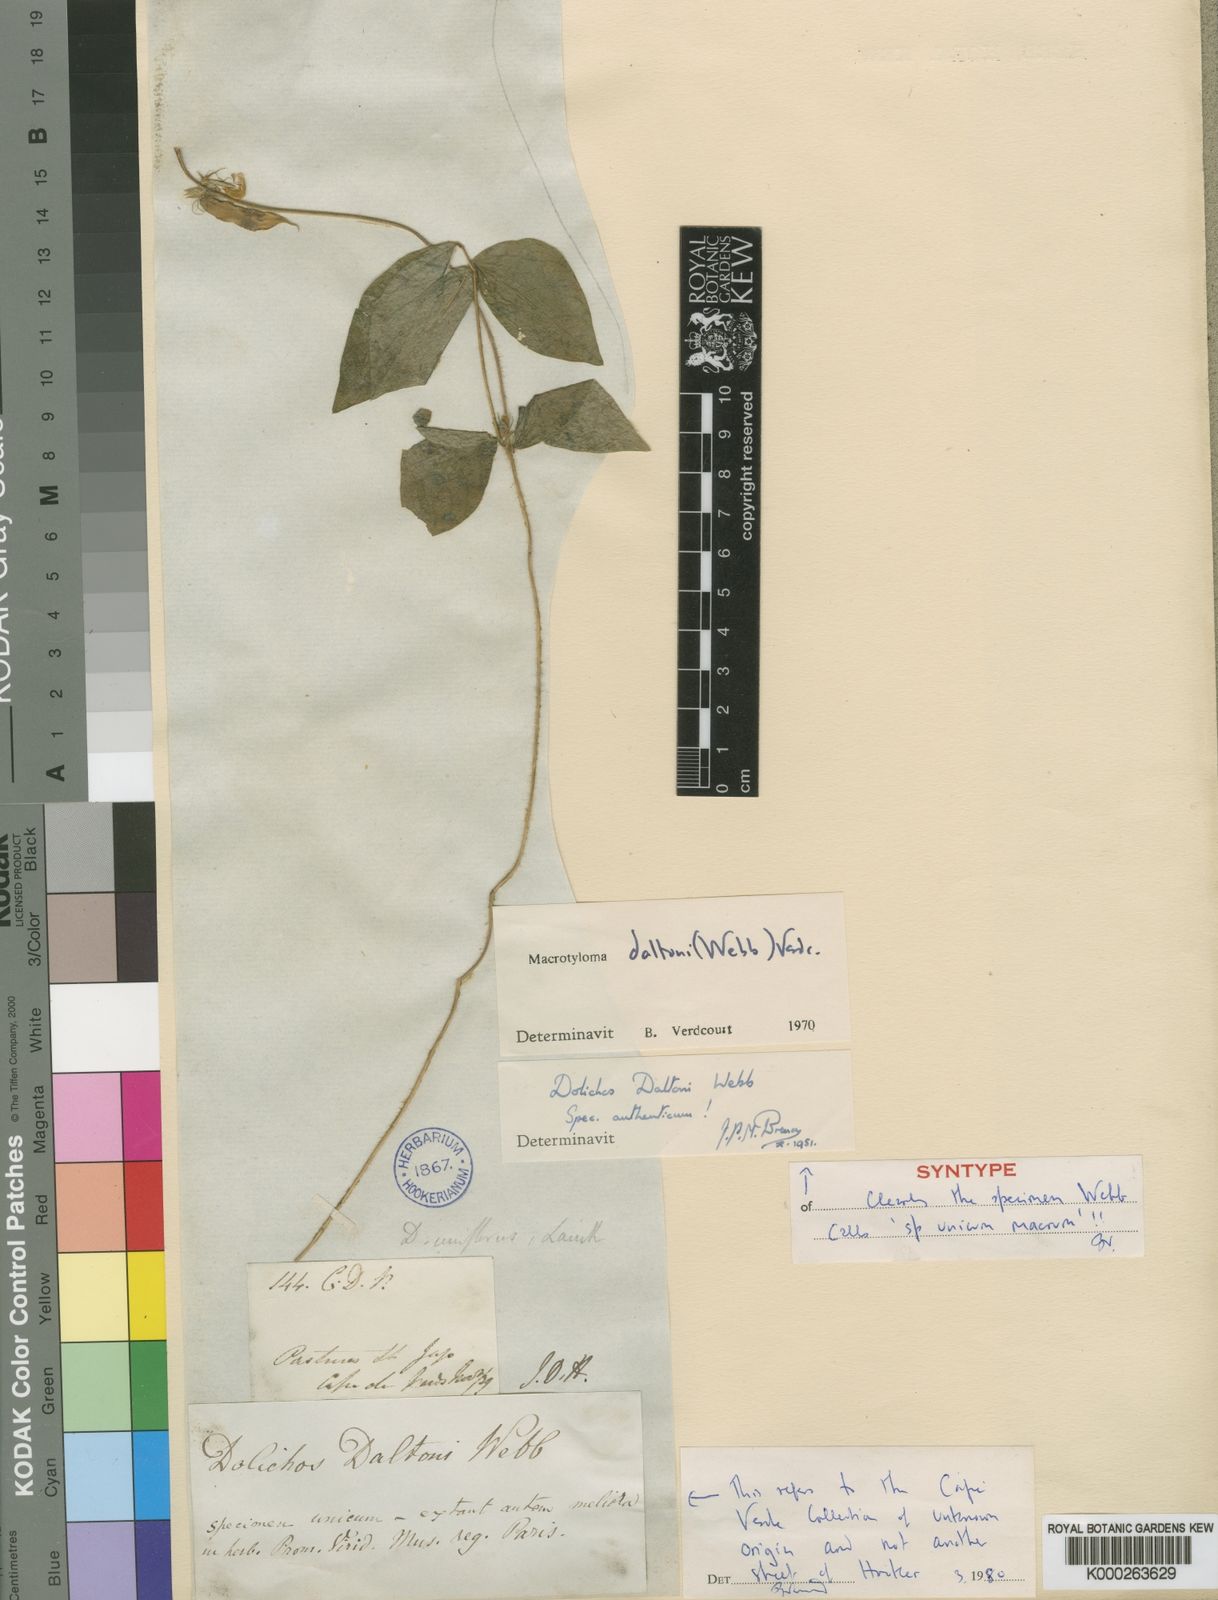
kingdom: Plantae
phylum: Tracheophyta
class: Magnoliopsida
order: Fabales
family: Fabaceae
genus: Macrotyloma
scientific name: Macrotyloma daltonii
